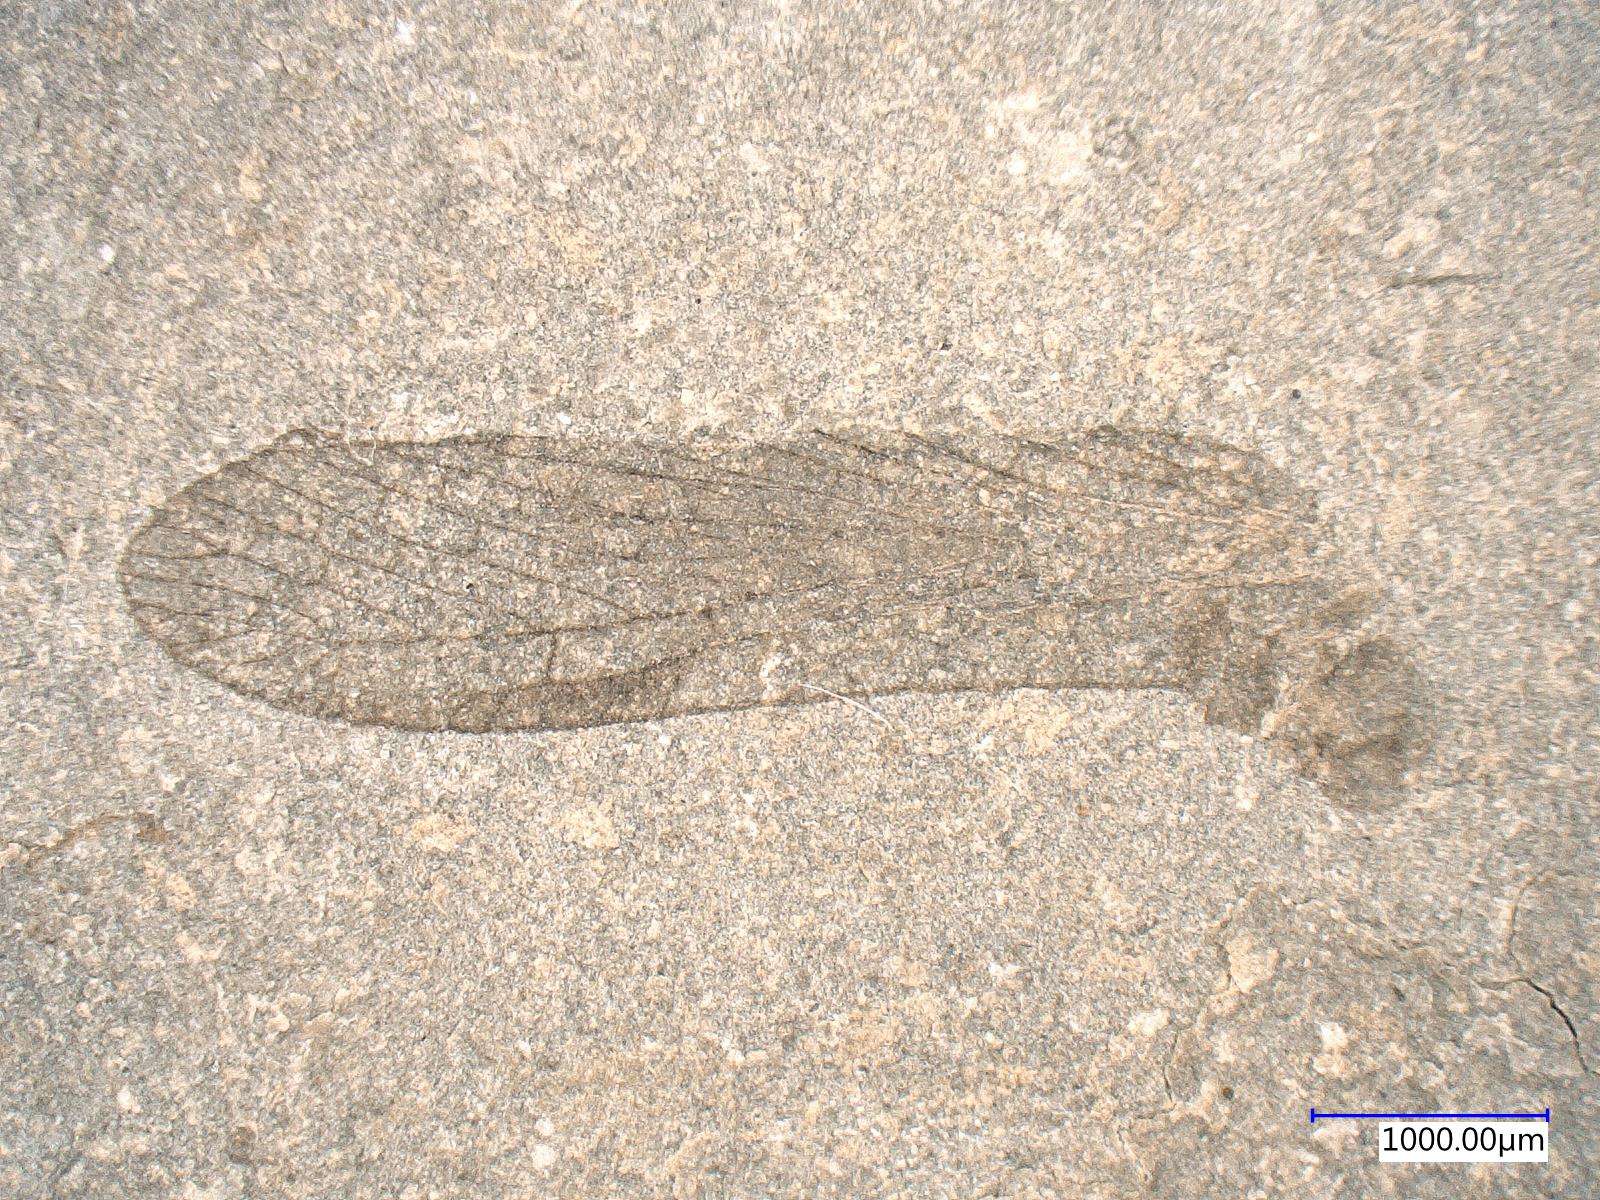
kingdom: Animalia
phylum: Arthropoda
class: Insecta
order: Orthoptera
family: Elcanidae
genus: Panorpidium
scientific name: Panorpidium magnum
